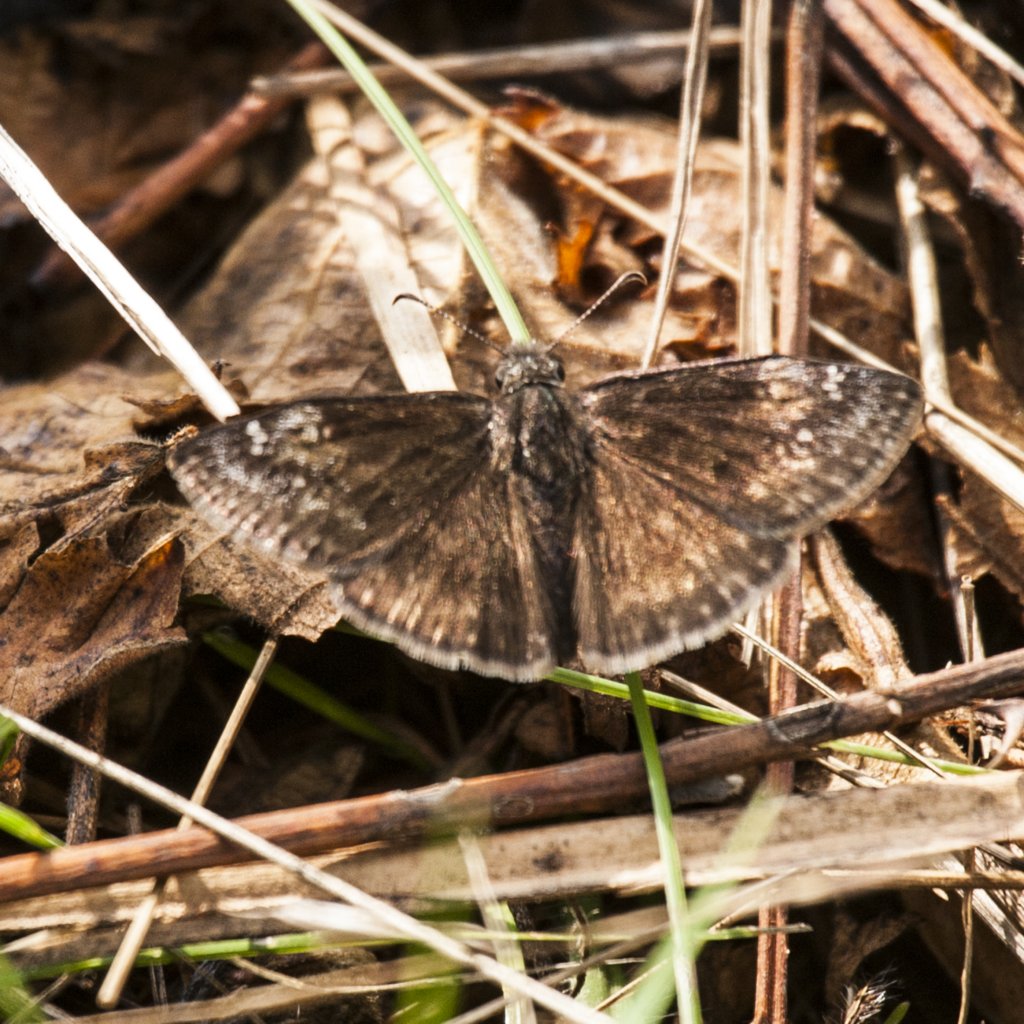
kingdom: Animalia
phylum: Arthropoda
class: Insecta
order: Lepidoptera
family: Hesperiidae
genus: Gesta
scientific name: Gesta
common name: Wild Indigo Duskywing
